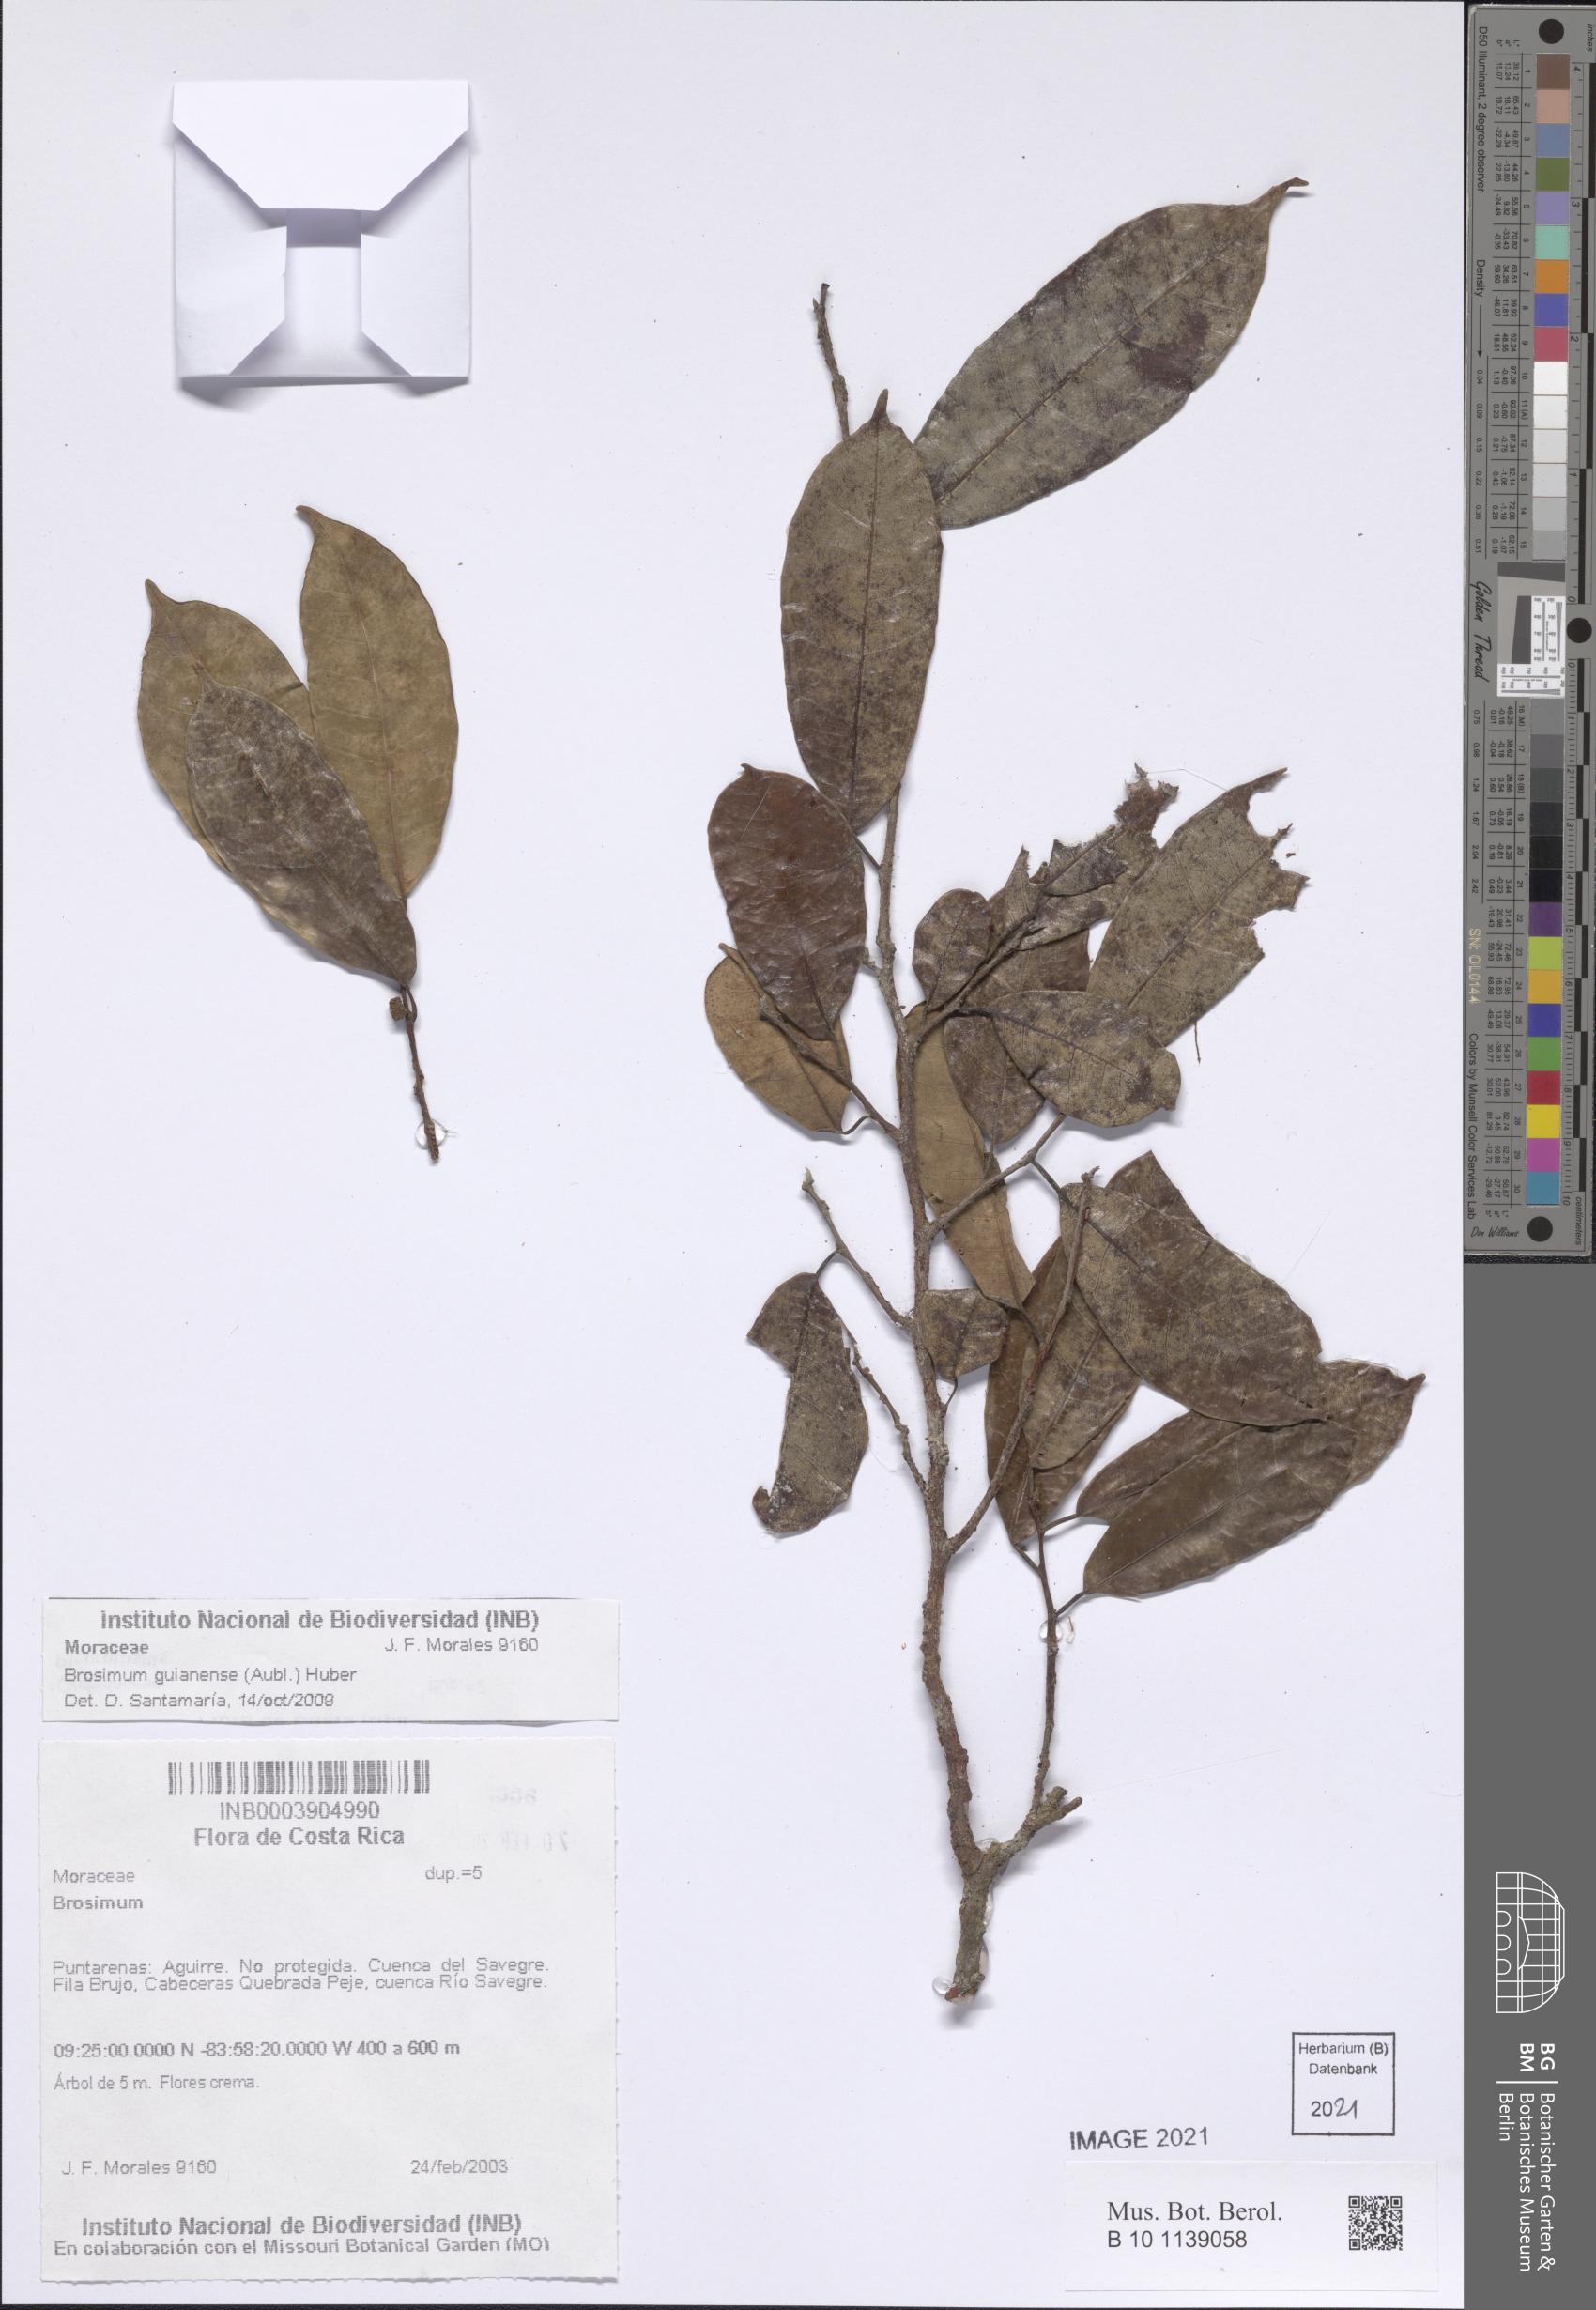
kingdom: Plantae
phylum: Tracheophyta
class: Magnoliopsida
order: Rosales
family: Moraceae
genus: Brosimum
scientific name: Brosimum guianense
